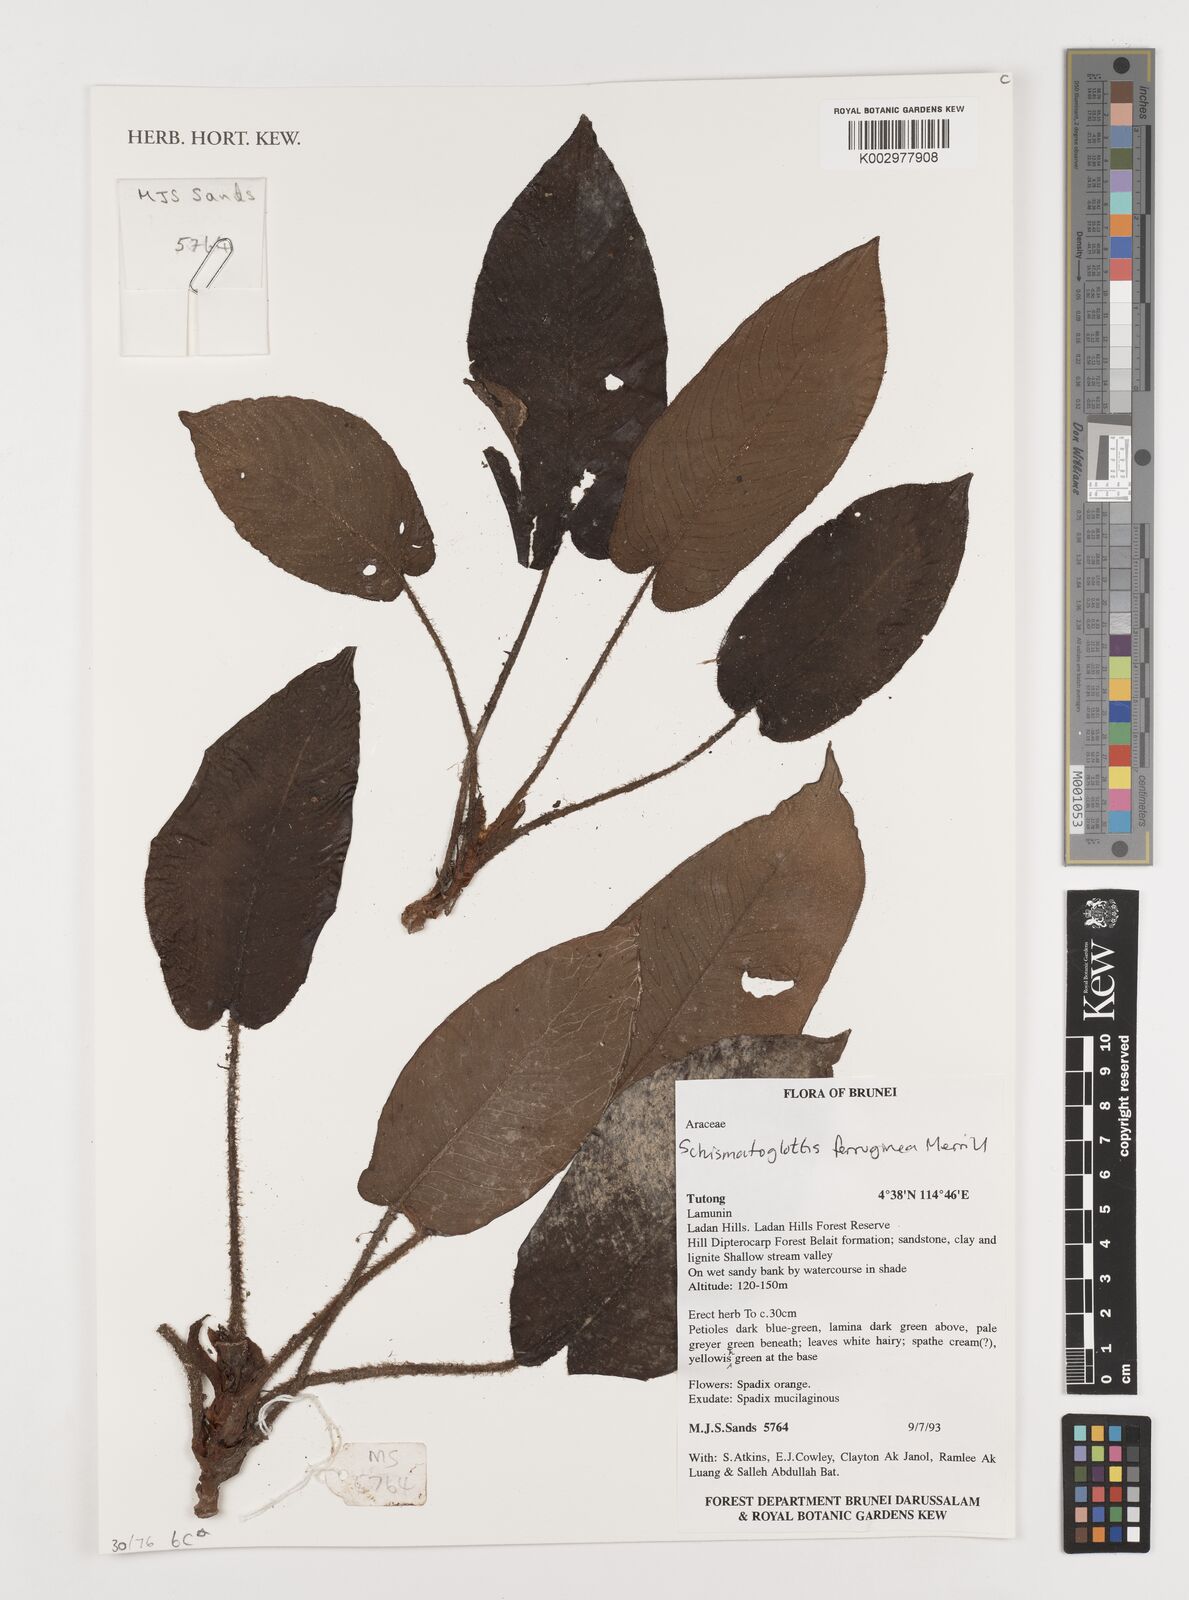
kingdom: Plantae
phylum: Tracheophyta
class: Liliopsida
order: Alismatales
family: Araceae
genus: Schismatoglottis
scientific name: Schismatoglottis ferruginea
